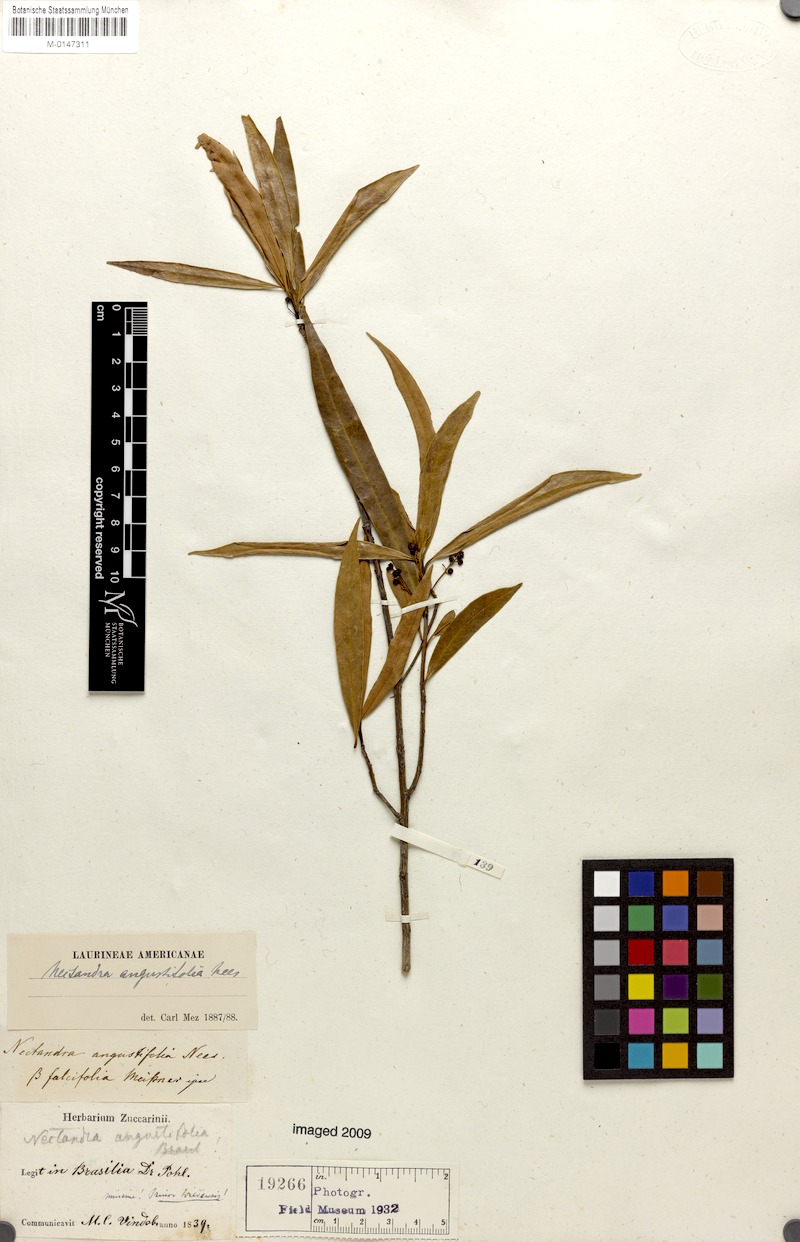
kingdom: Plantae
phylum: Tracheophyta
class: Magnoliopsida
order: Laurales
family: Lauraceae
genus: Nectandra
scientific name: Nectandra angustifolia
